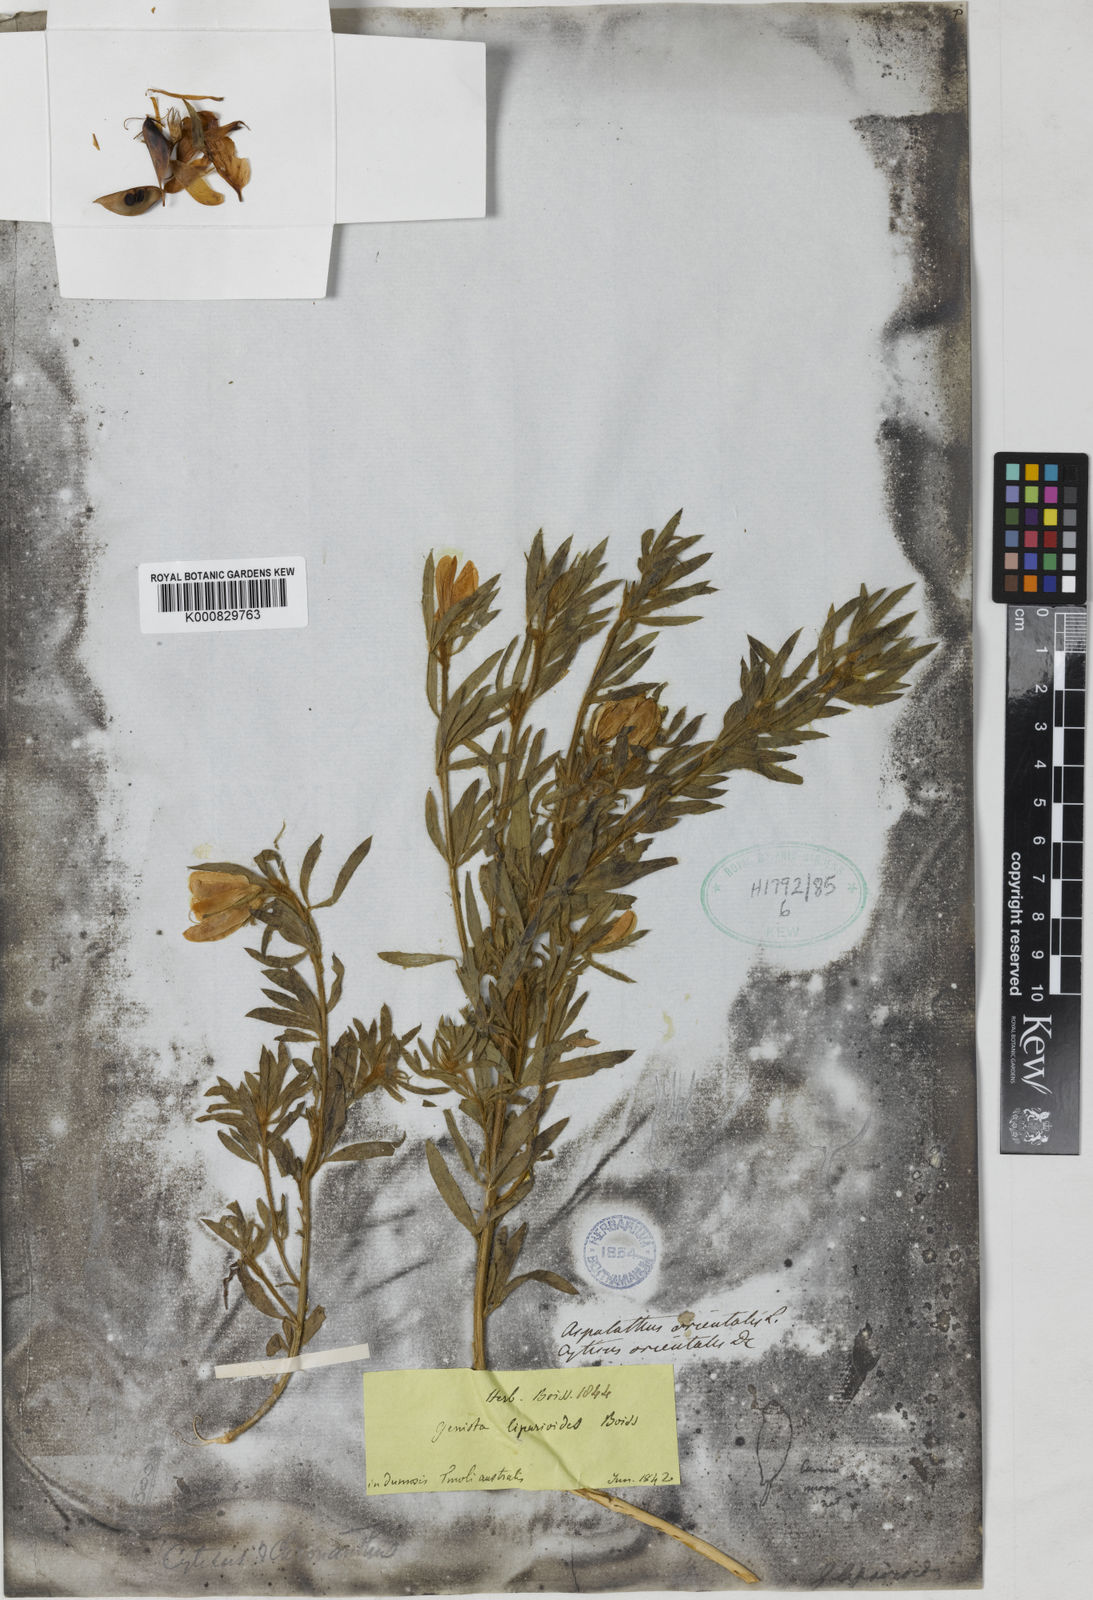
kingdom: Plantae
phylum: Tracheophyta
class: Magnoliopsida
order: Fabales
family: Fabaceae
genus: Cytisus
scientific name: Cytisus orientalis
